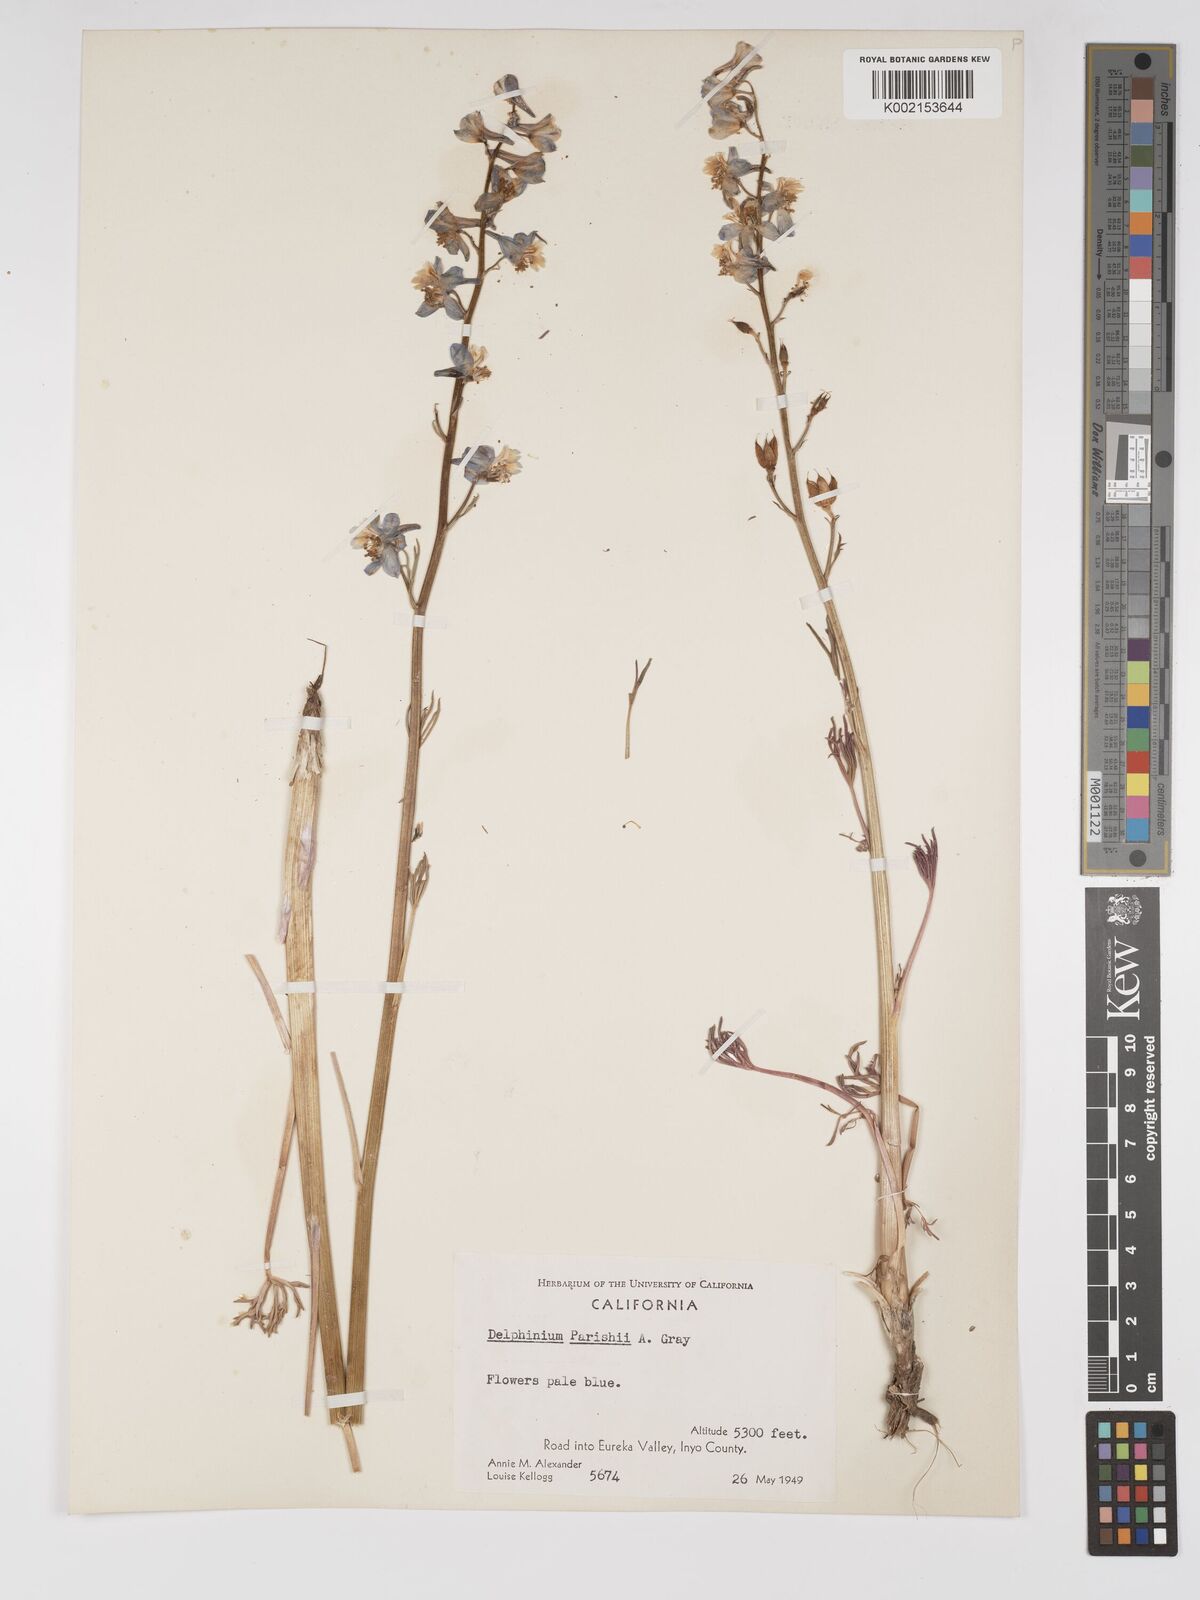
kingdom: Plantae
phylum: Tracheophyta
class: Magnoliopsida
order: Ranunculales
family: Ranunculaceae
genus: Delphinium
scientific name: Delphinium parishii
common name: Apache larkspur
